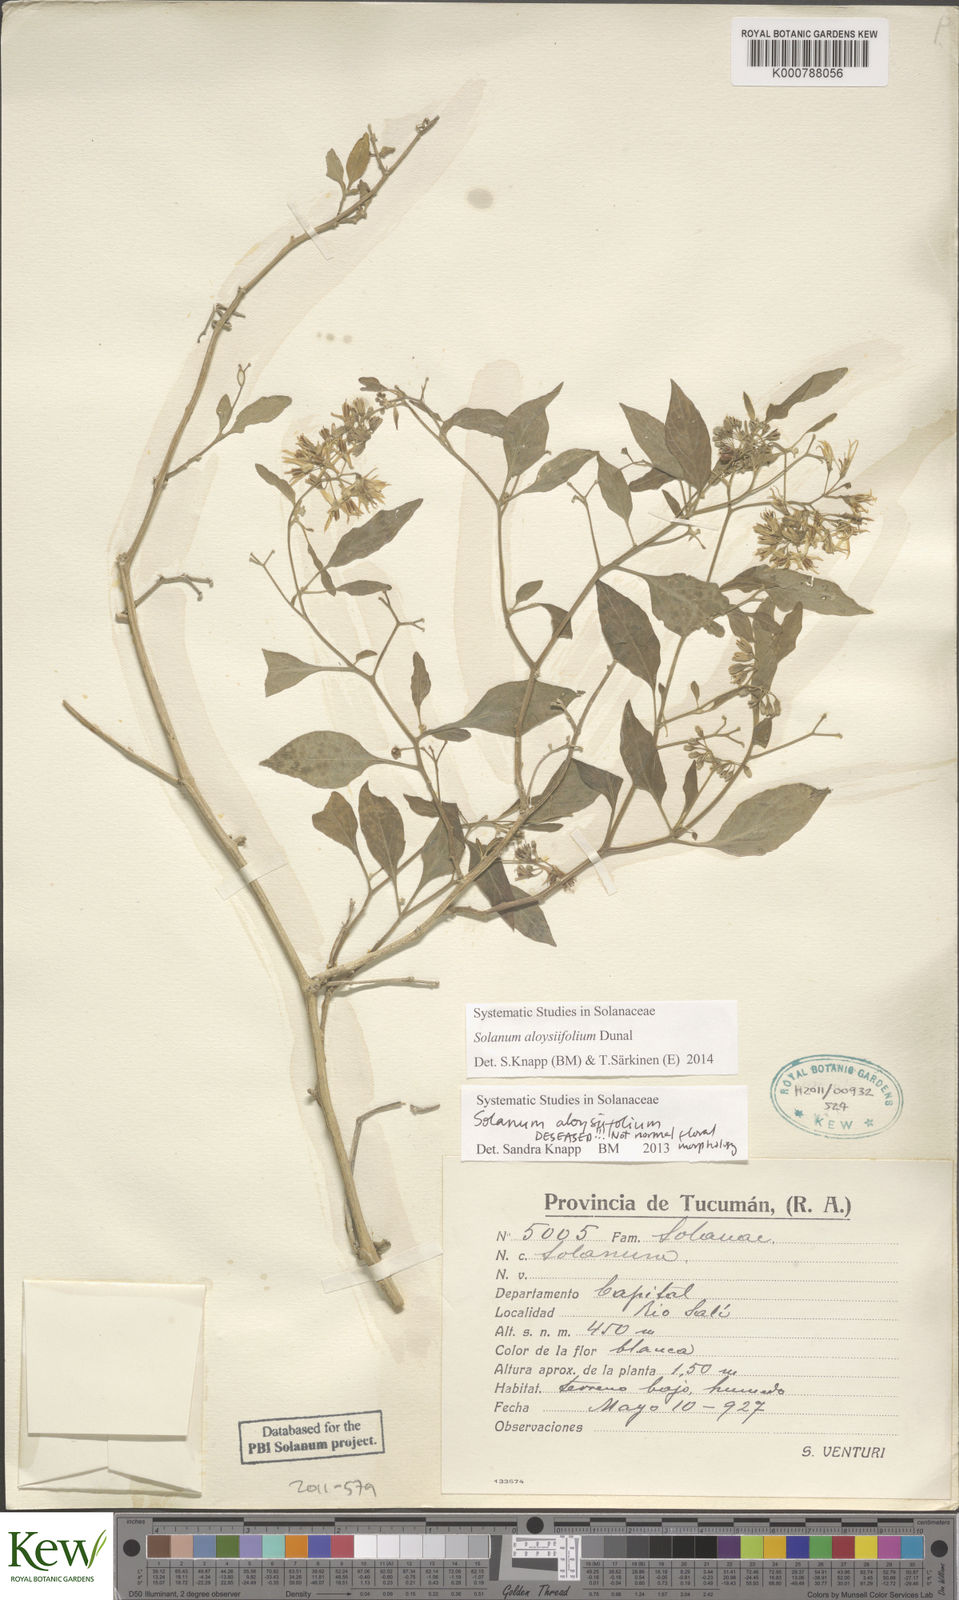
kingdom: Plantae
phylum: Tracheophyta
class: Magnoliopsida
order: Solanales
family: Solanaceae
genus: Solanum
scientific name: Solanum aloysiifolium
